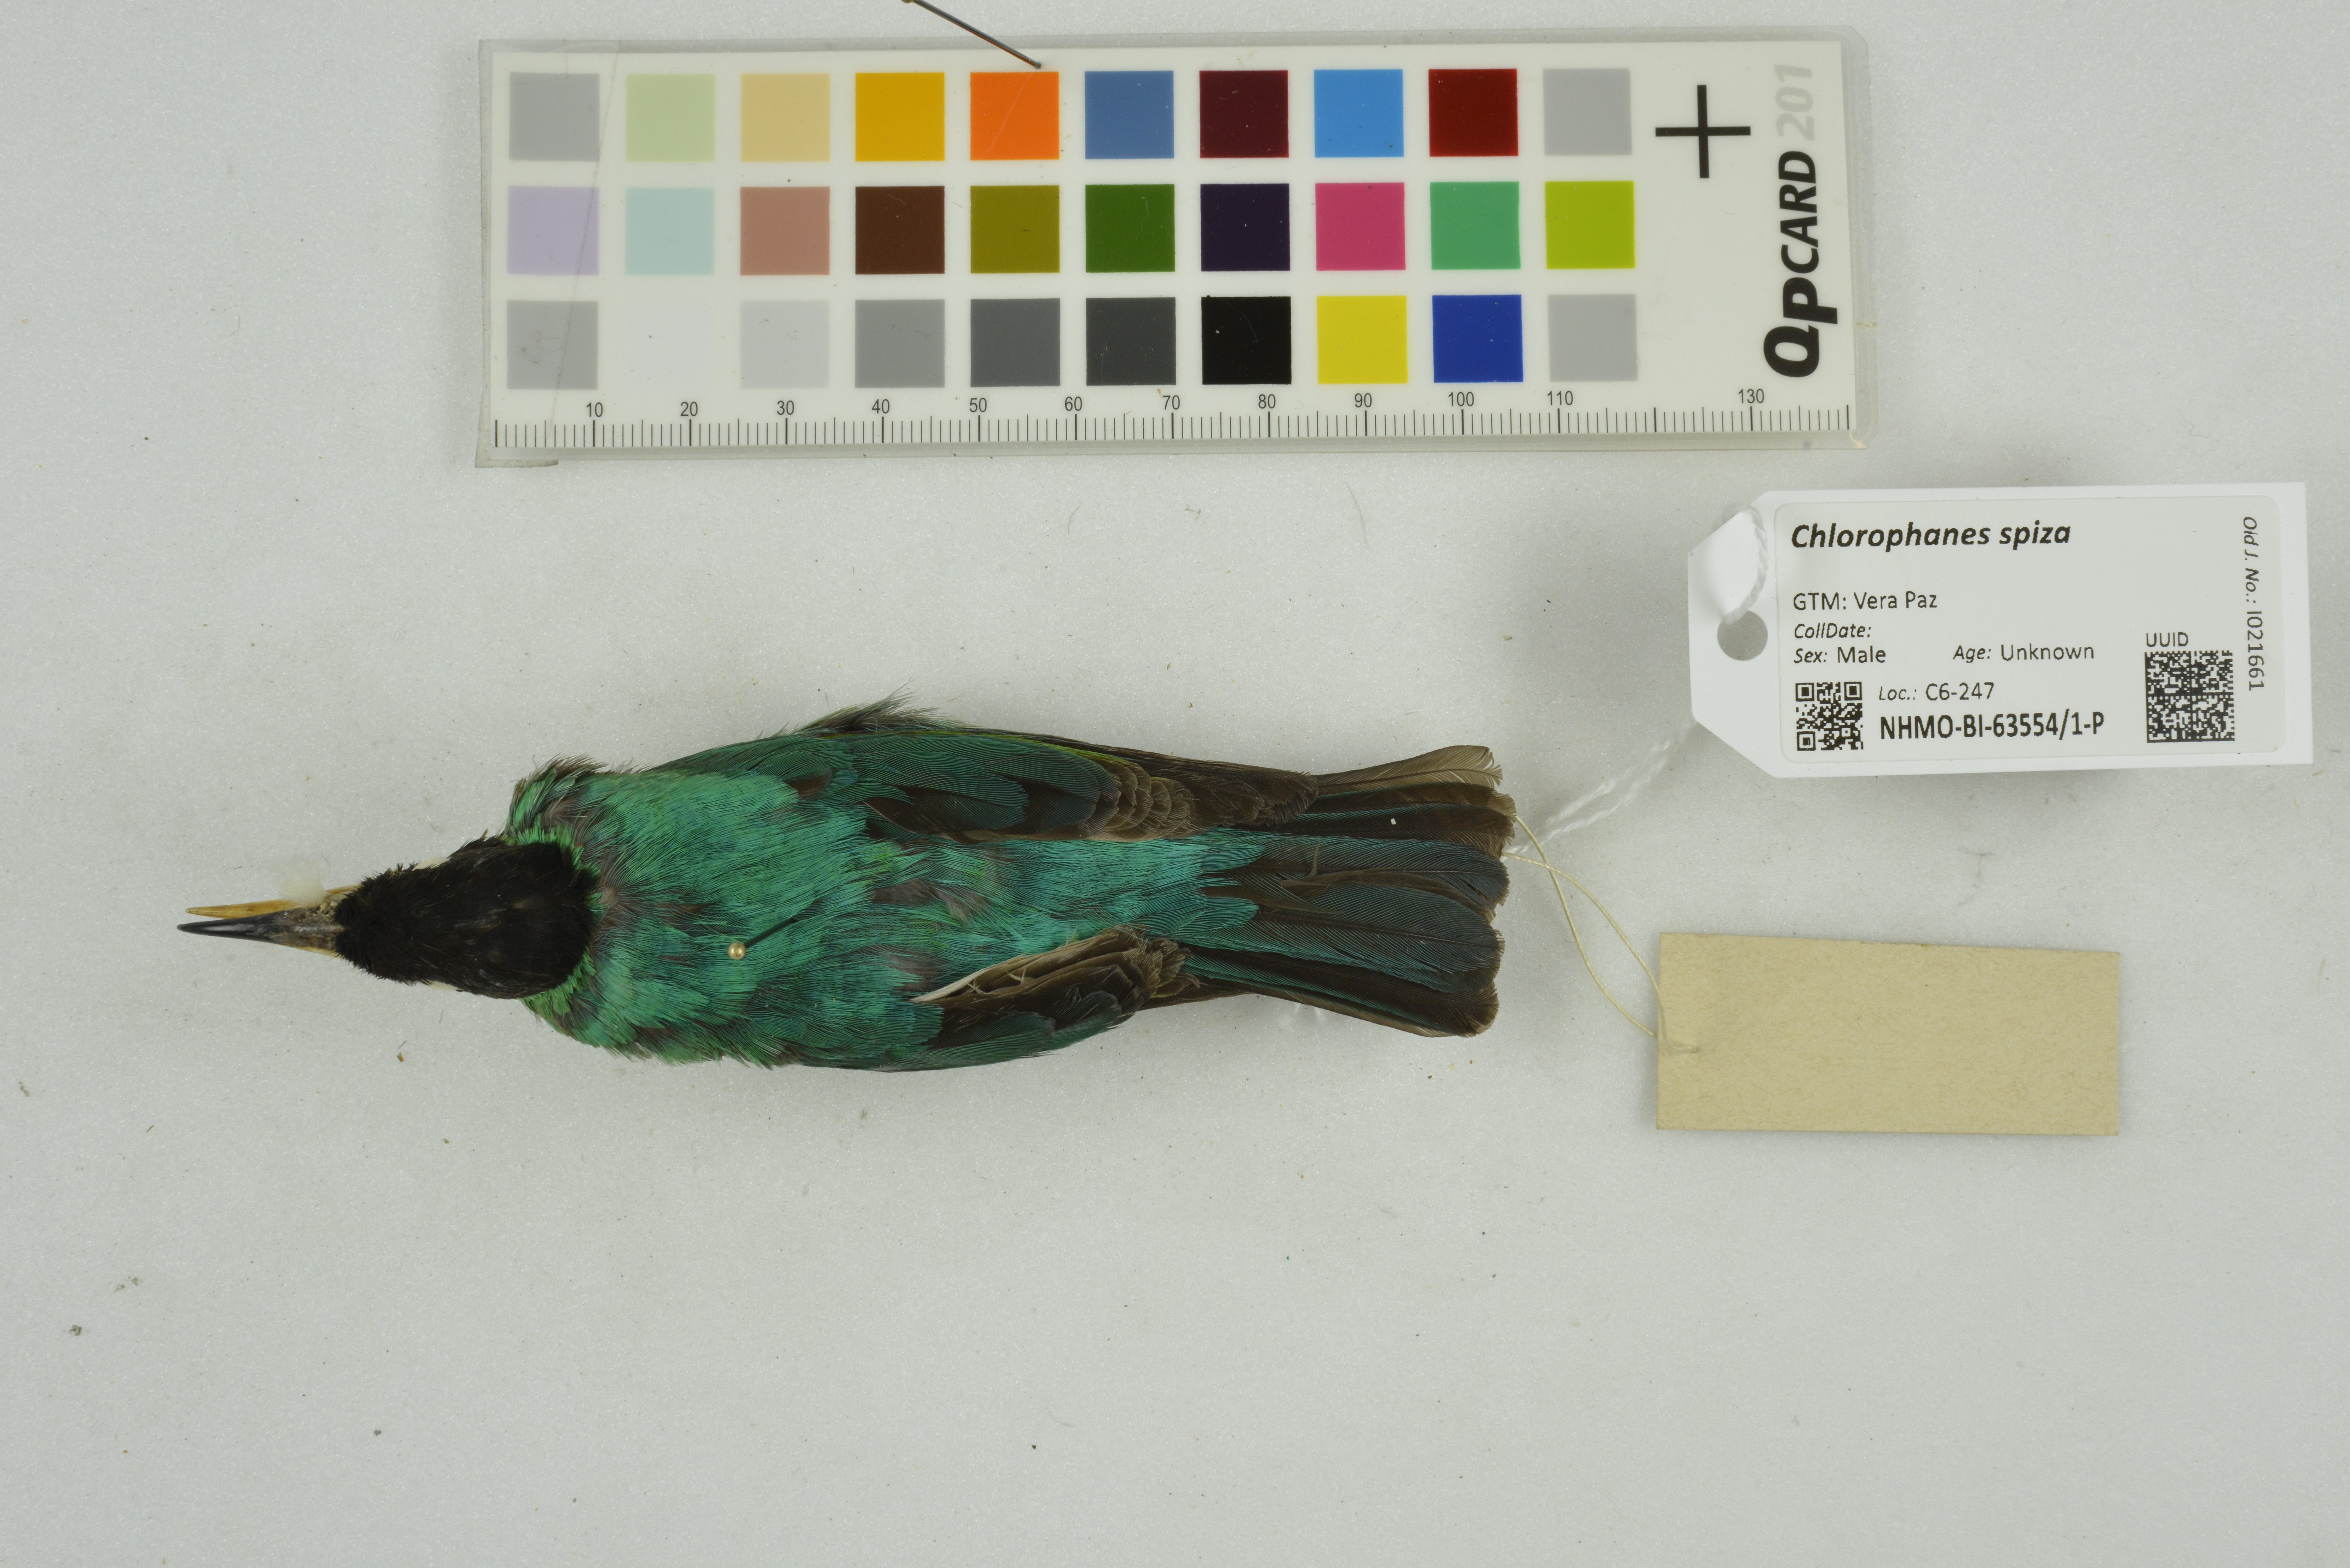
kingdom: Animalia
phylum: Chordata
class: Aves
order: Passeriformes
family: Thraupidae
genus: Chlorophanes
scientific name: Chlorophanes spiza
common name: Green honeycreeper
